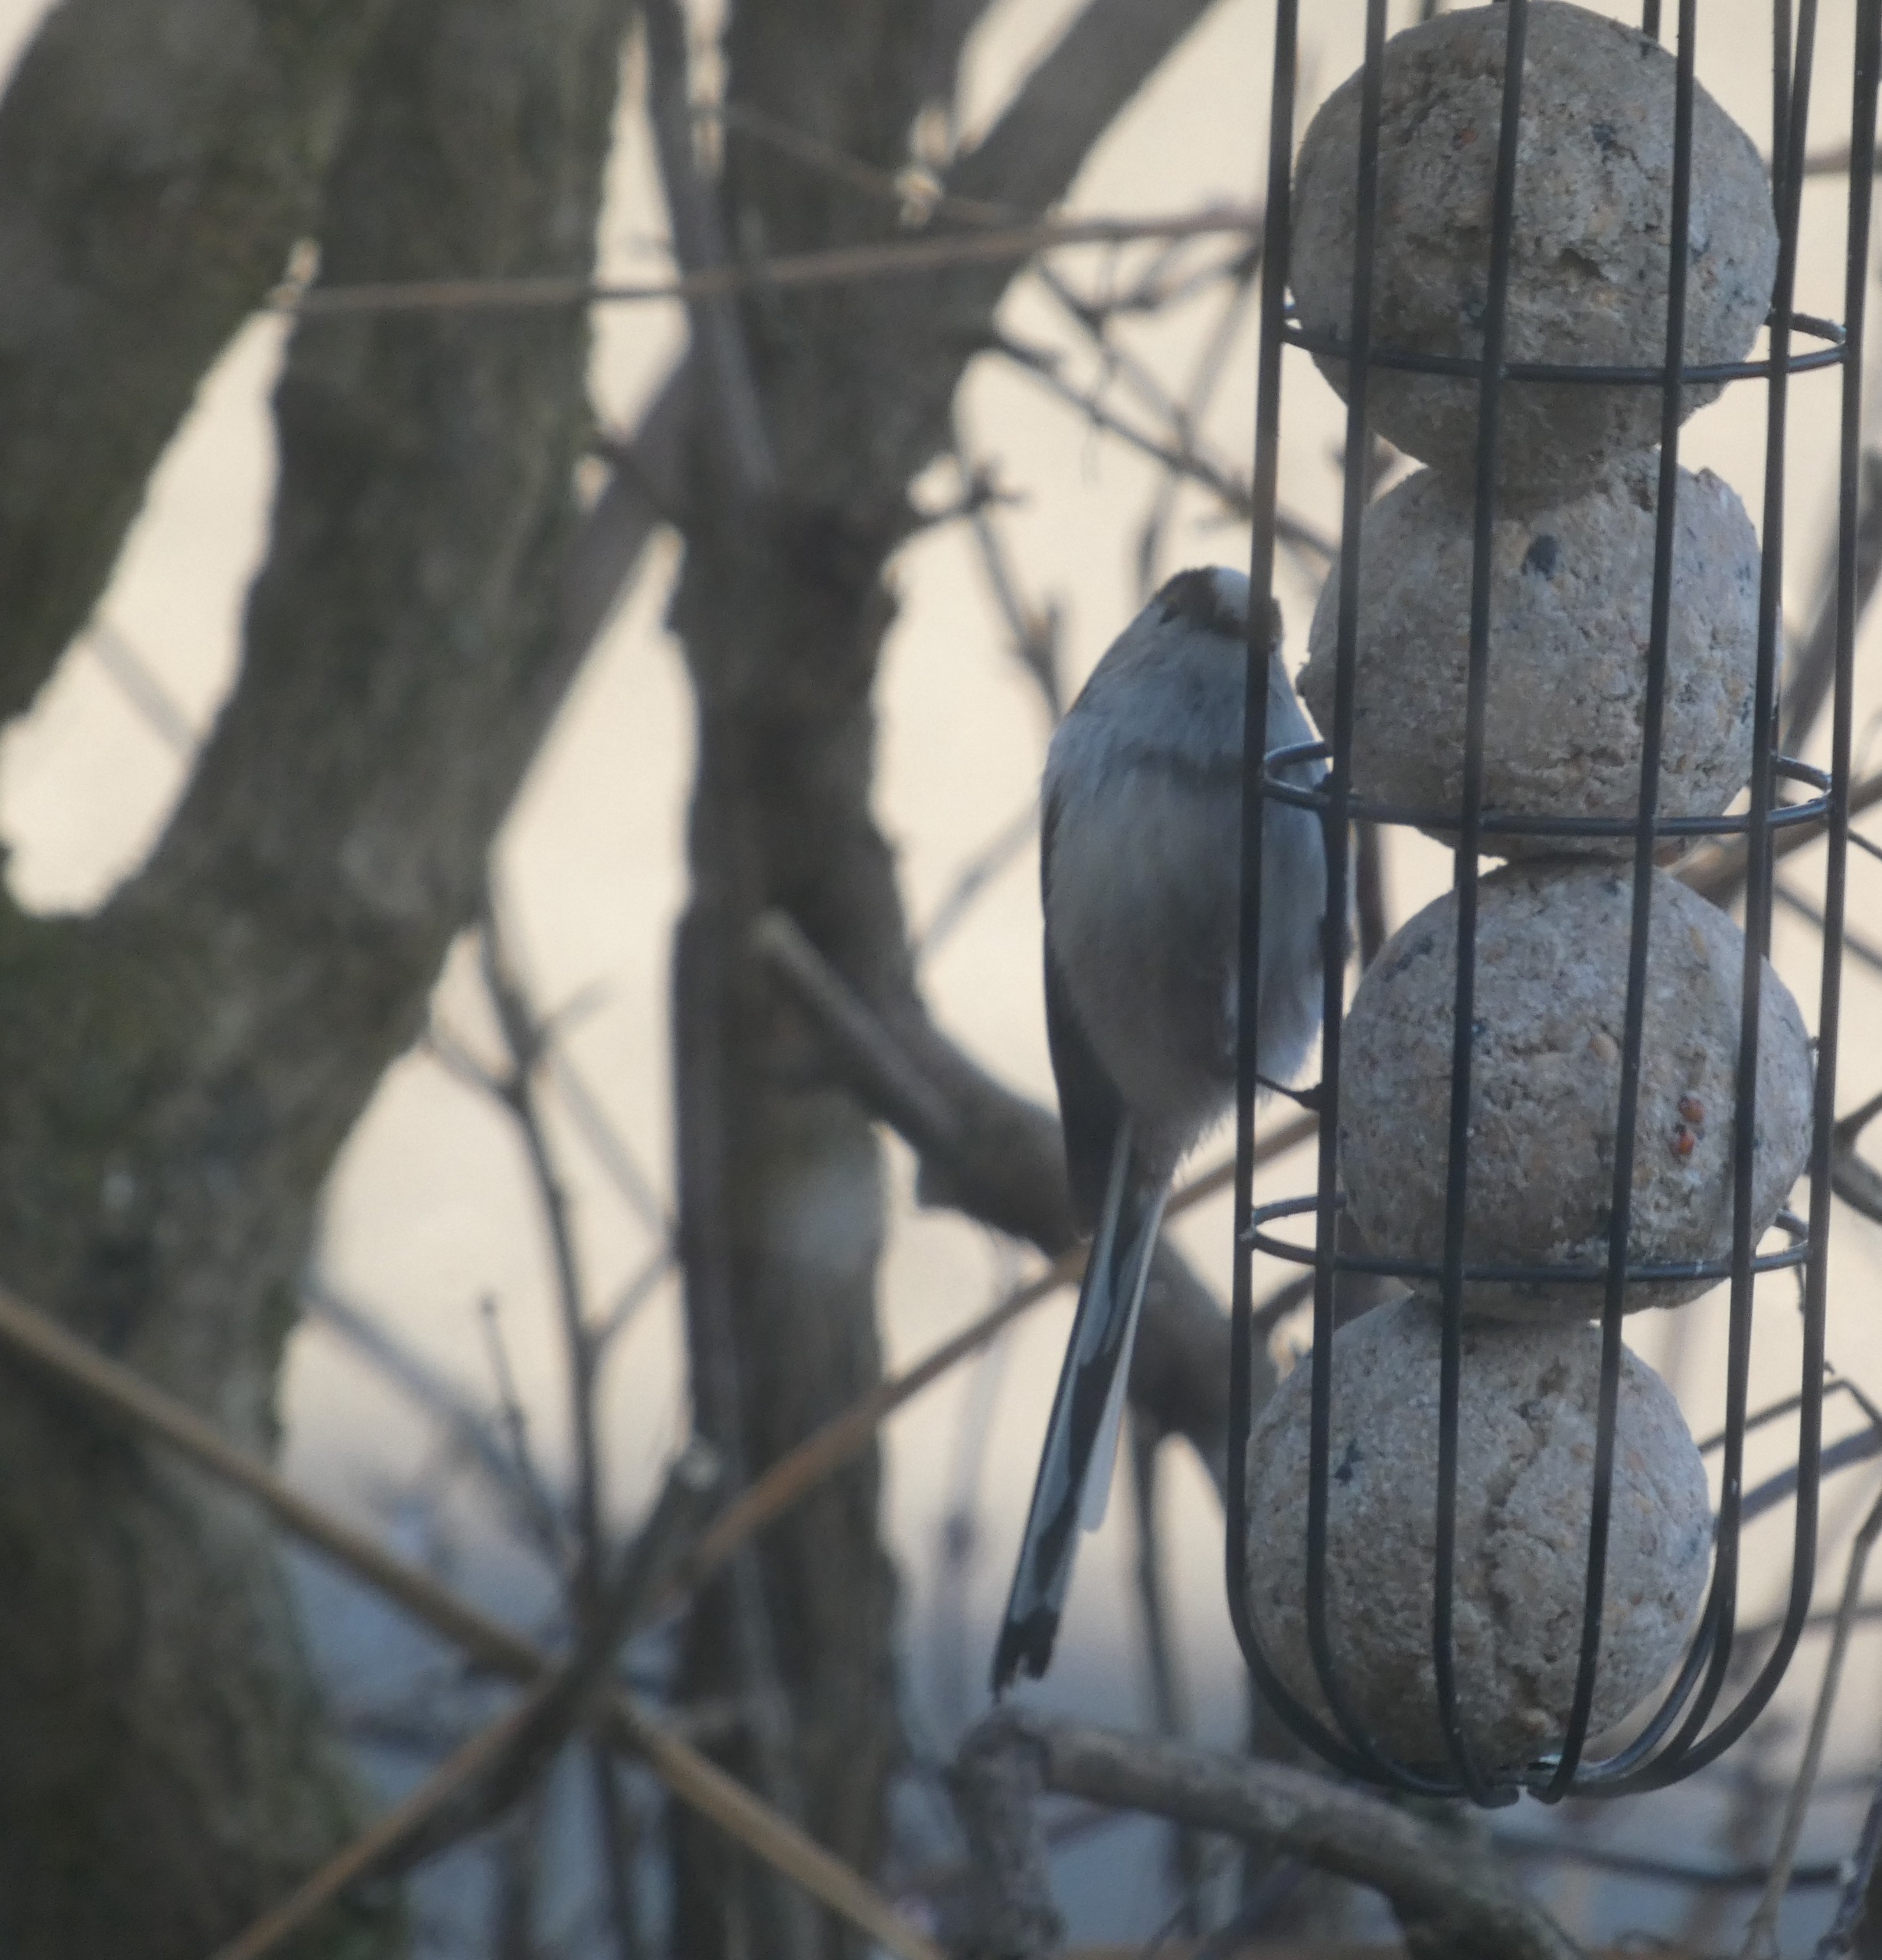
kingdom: Animalia
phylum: Chordata
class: Aves
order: Passeriformes
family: Aegithalidae
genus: Aegithalos
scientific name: Aegithalos caudatus
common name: Halemejse
